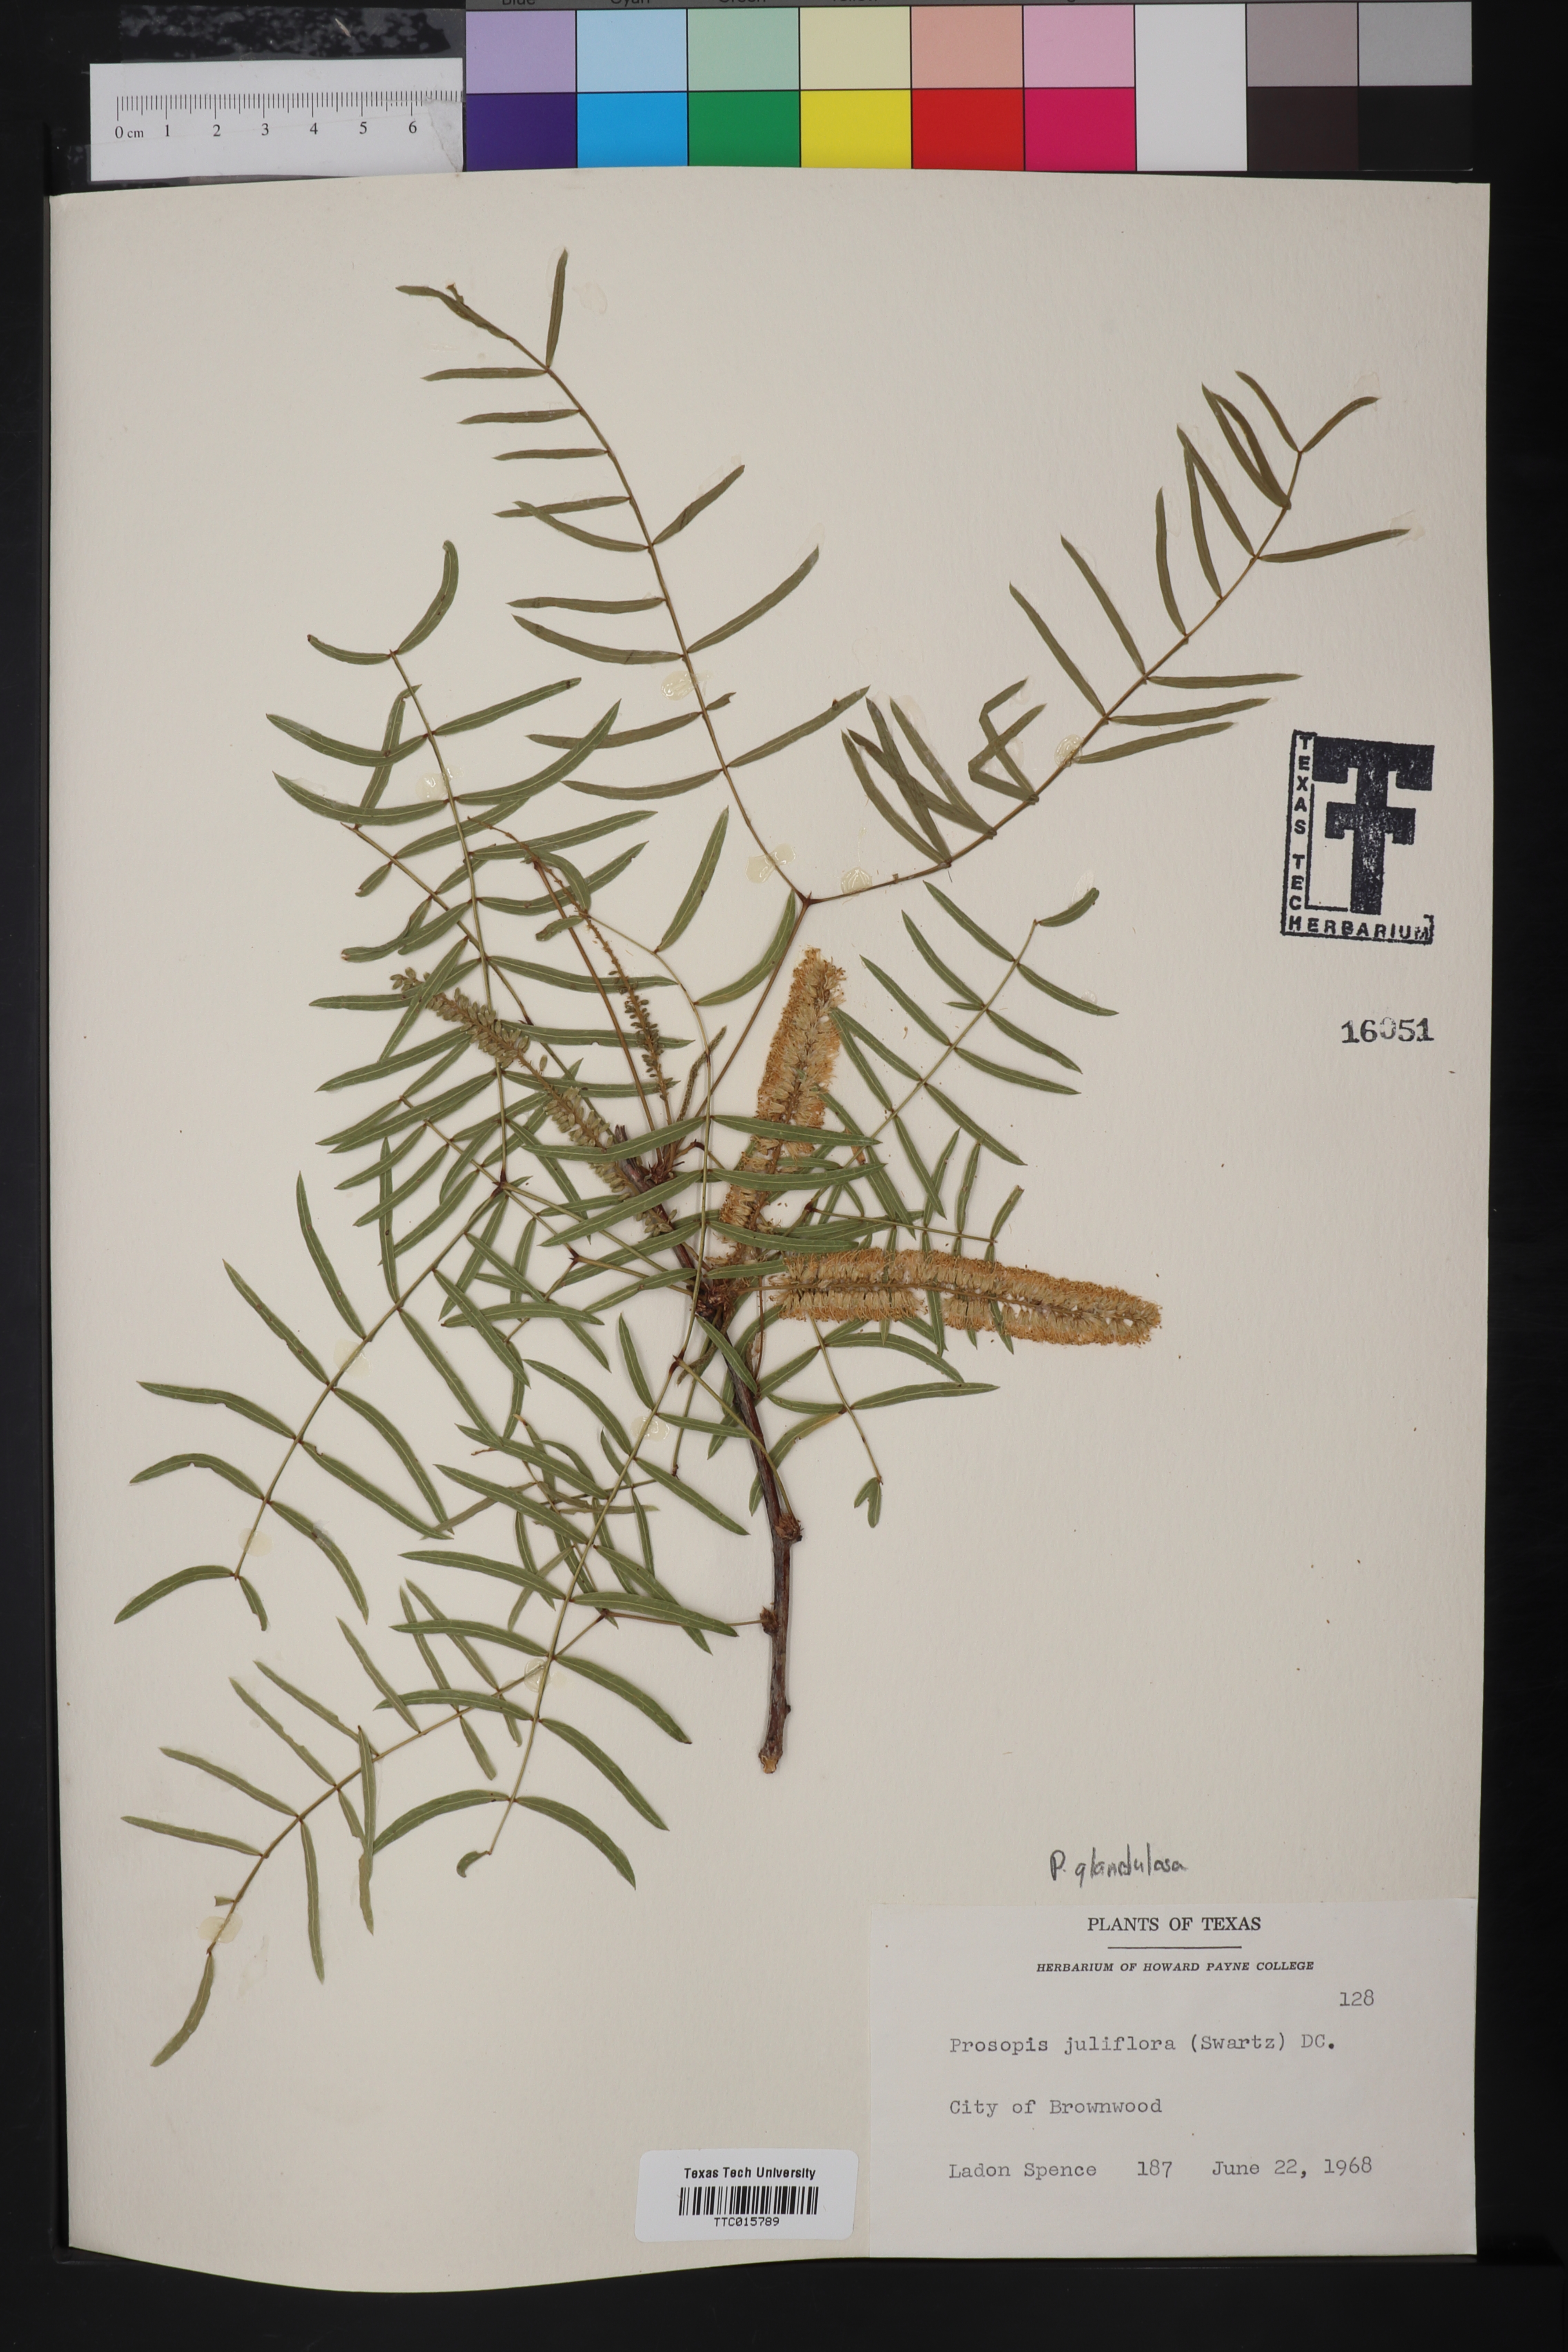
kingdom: Plantae
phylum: Tracheophyta
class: Magnoliopsida
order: Fabales
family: Fabaceae
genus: Prosopis
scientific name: Prosopis glandulosa
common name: Honey mesquite
